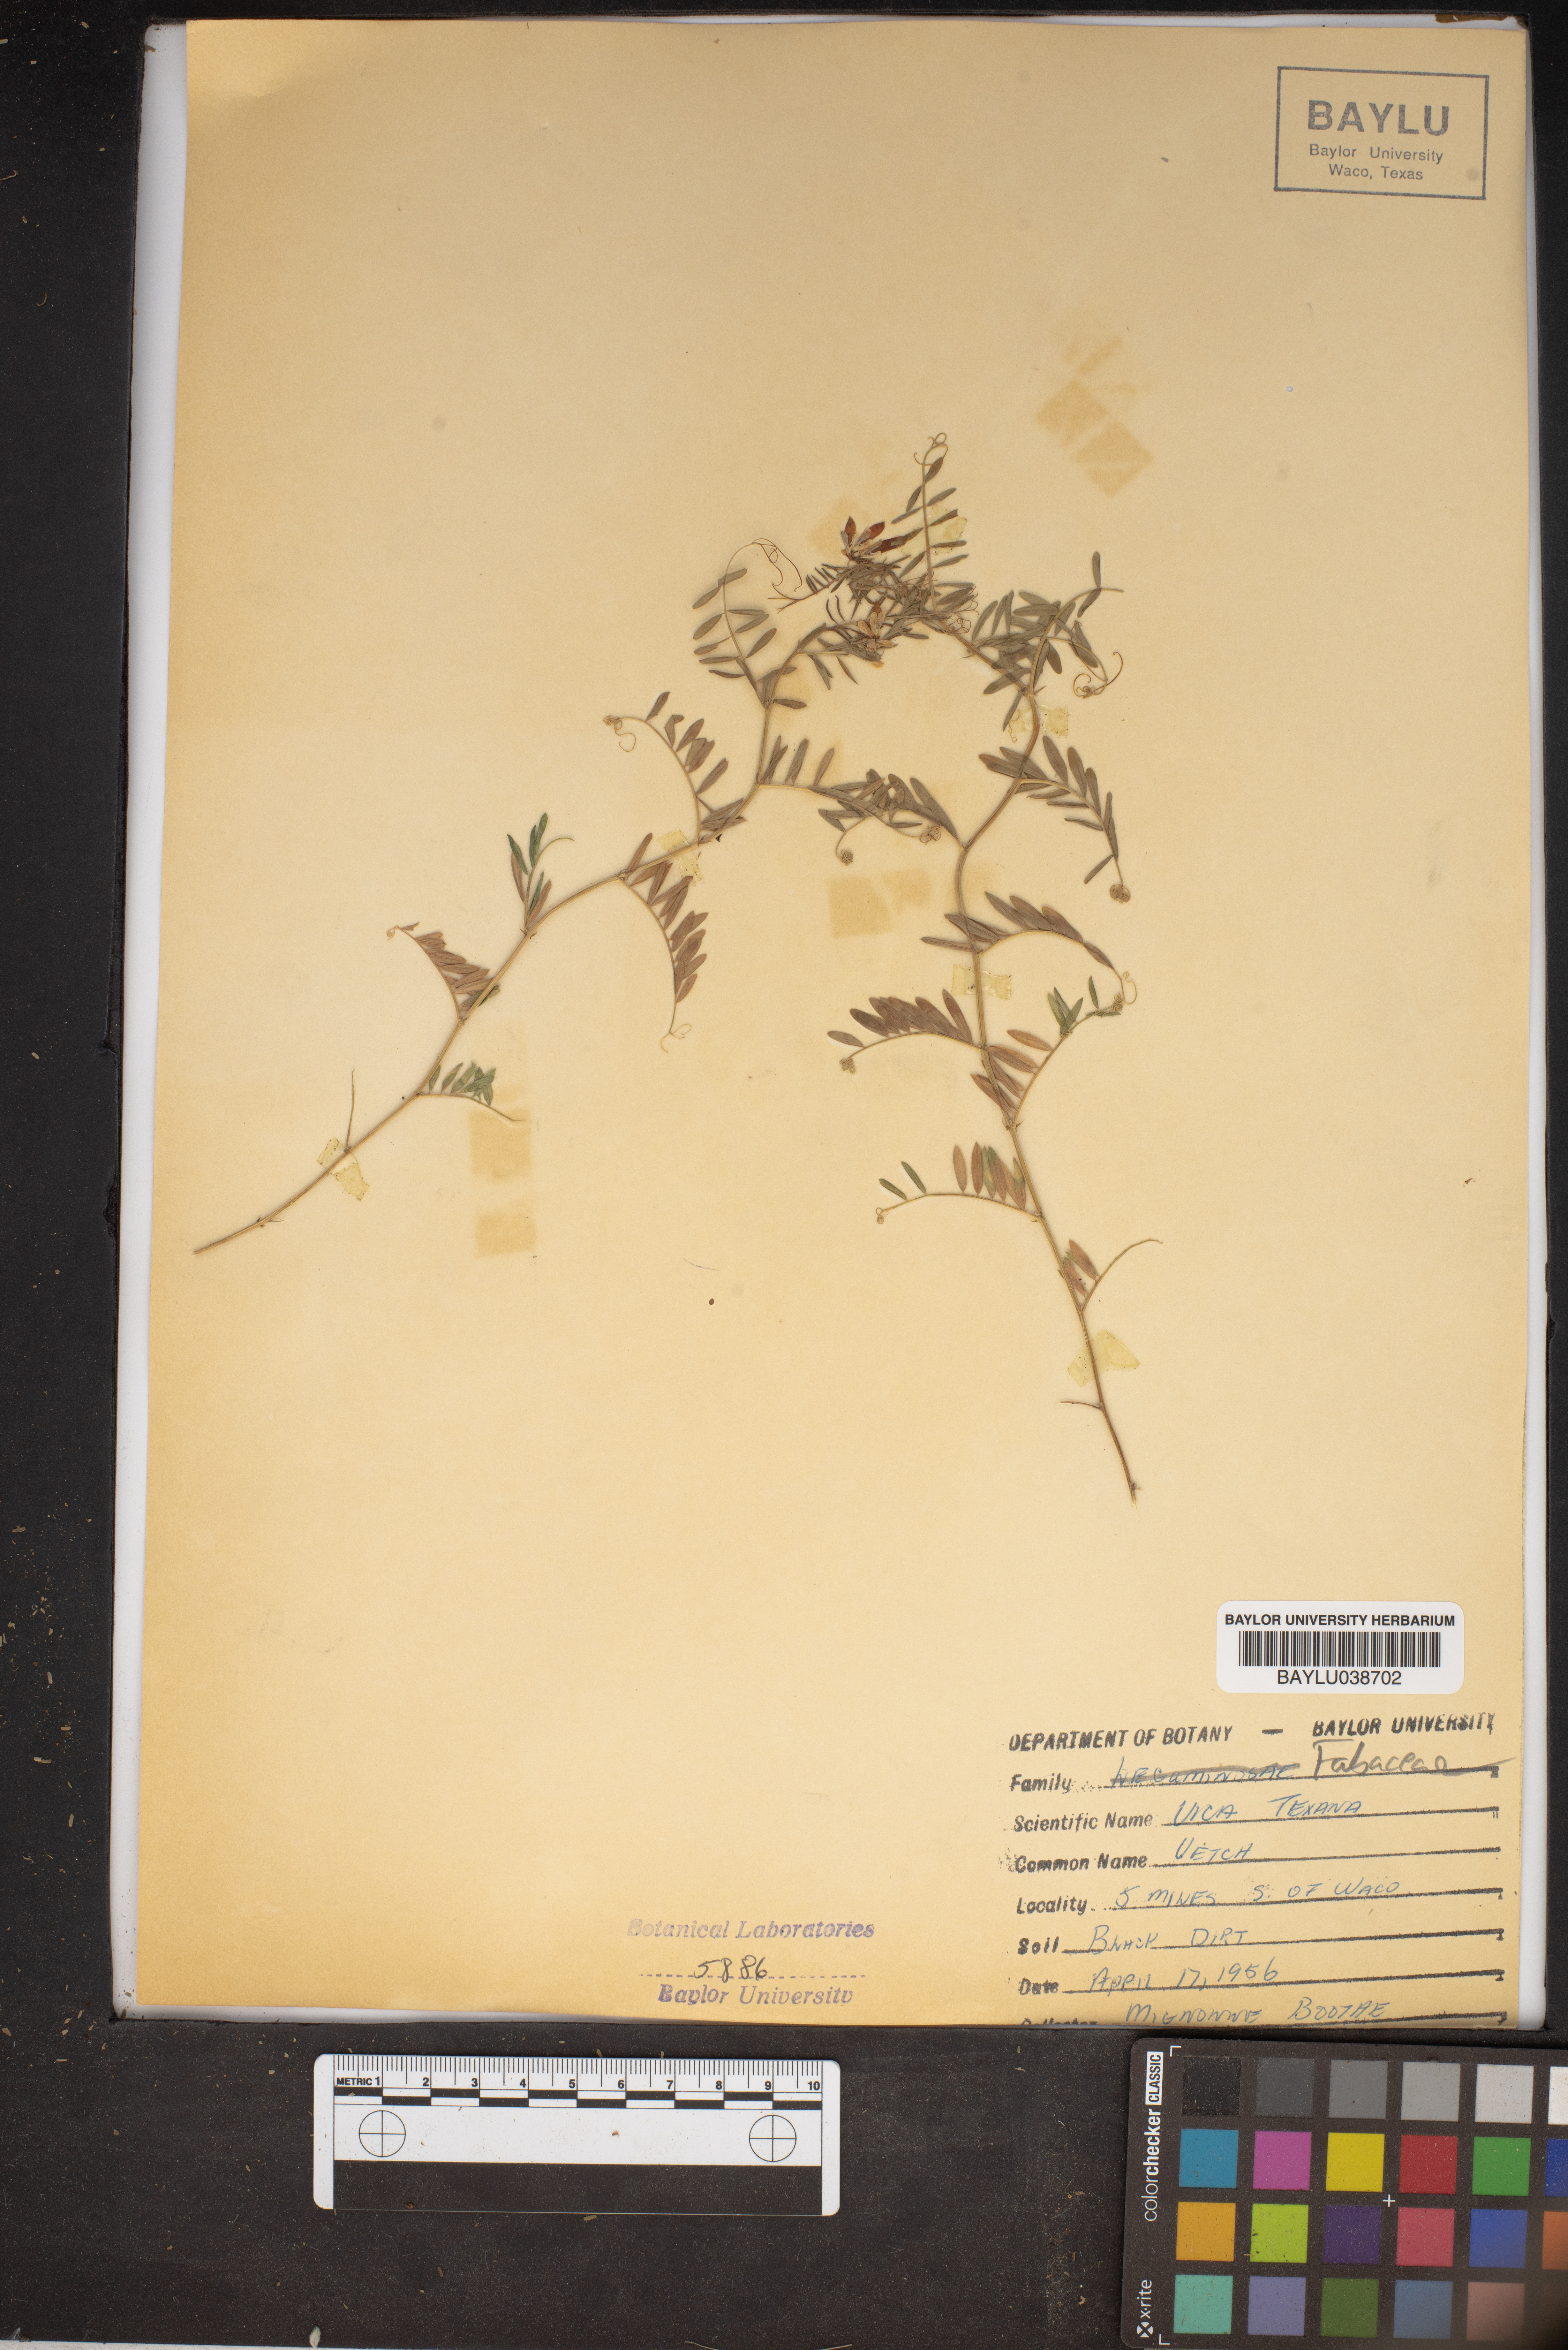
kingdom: Plantae
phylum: Tracheophyta
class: Magnoliopsida
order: Fabales
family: Fabaceae
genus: Vicia
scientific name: Vicia ludoviciana
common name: Louisiana vetch
